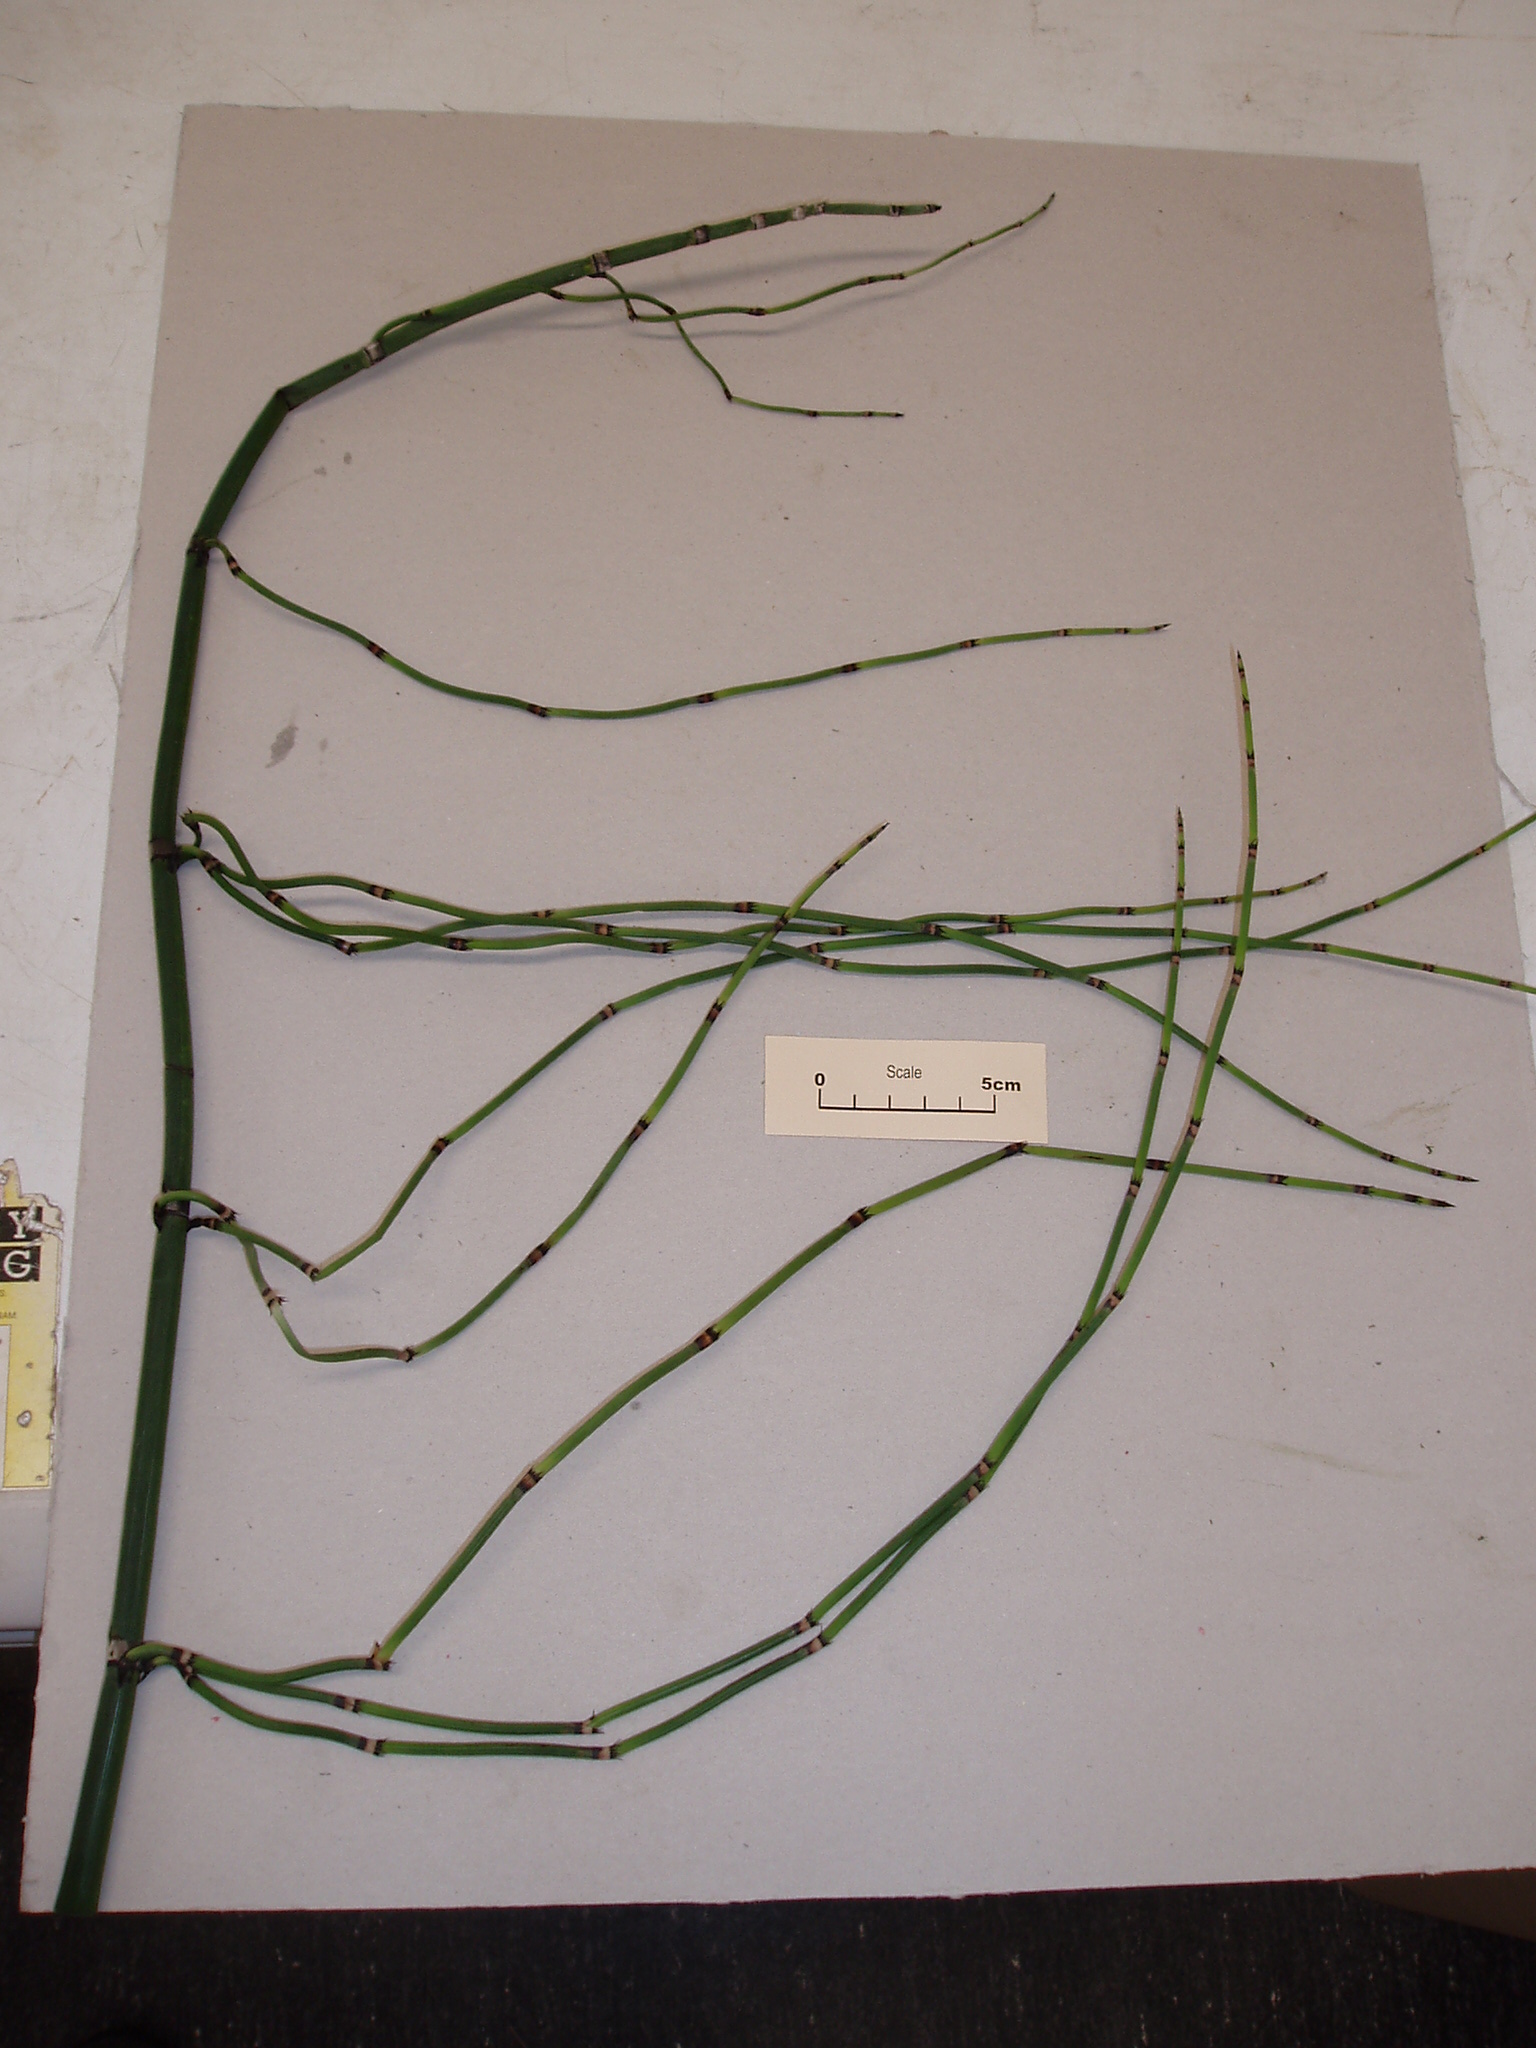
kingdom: Plantae
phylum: Tracheophyta
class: Polypodiopsida
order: Equisetales
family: Equisetaceae
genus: Equisetum
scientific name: Equisetum praealtum
